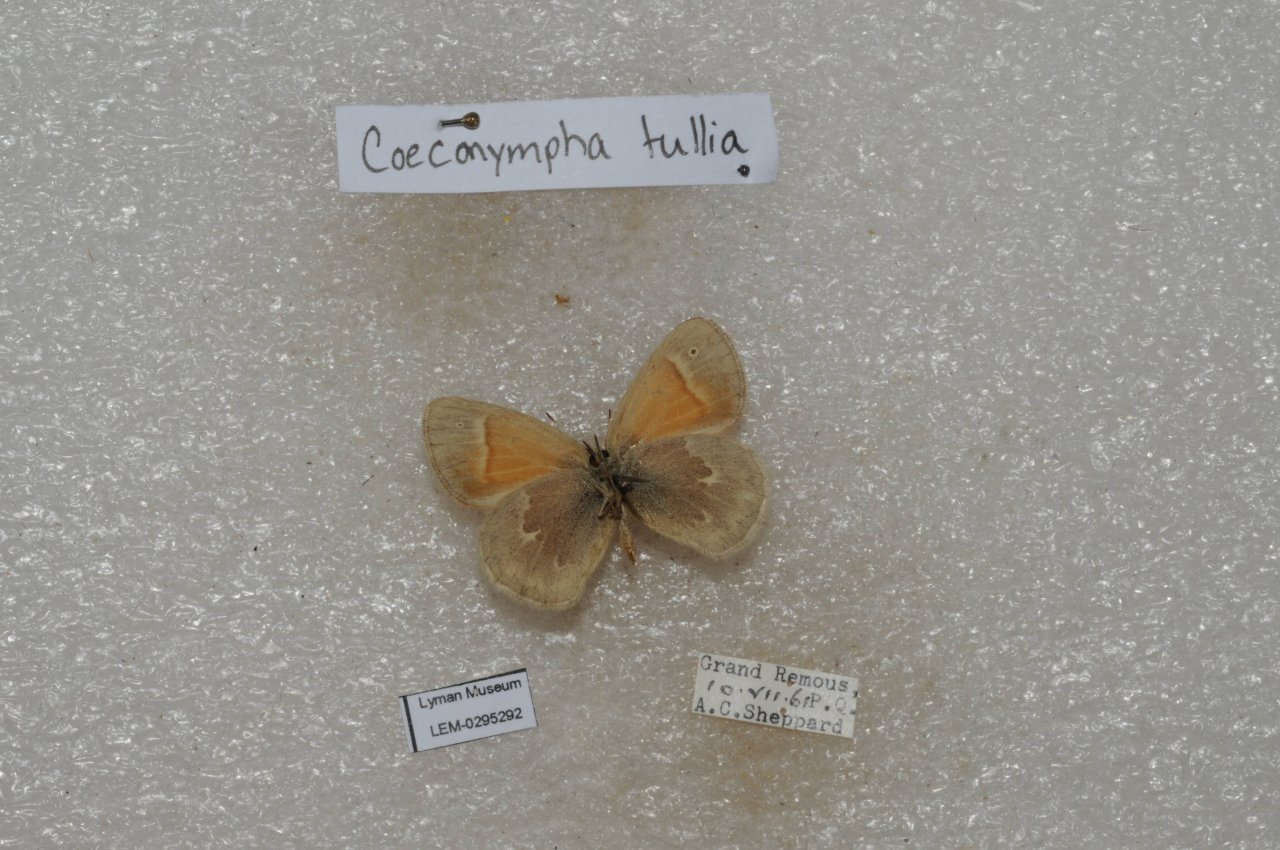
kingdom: Animalia
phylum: Arthropoda
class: Insecta
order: Lepidoptera
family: Nymphalidae
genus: Coenonympha
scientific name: Coenonympha tullia
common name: Large Heath
